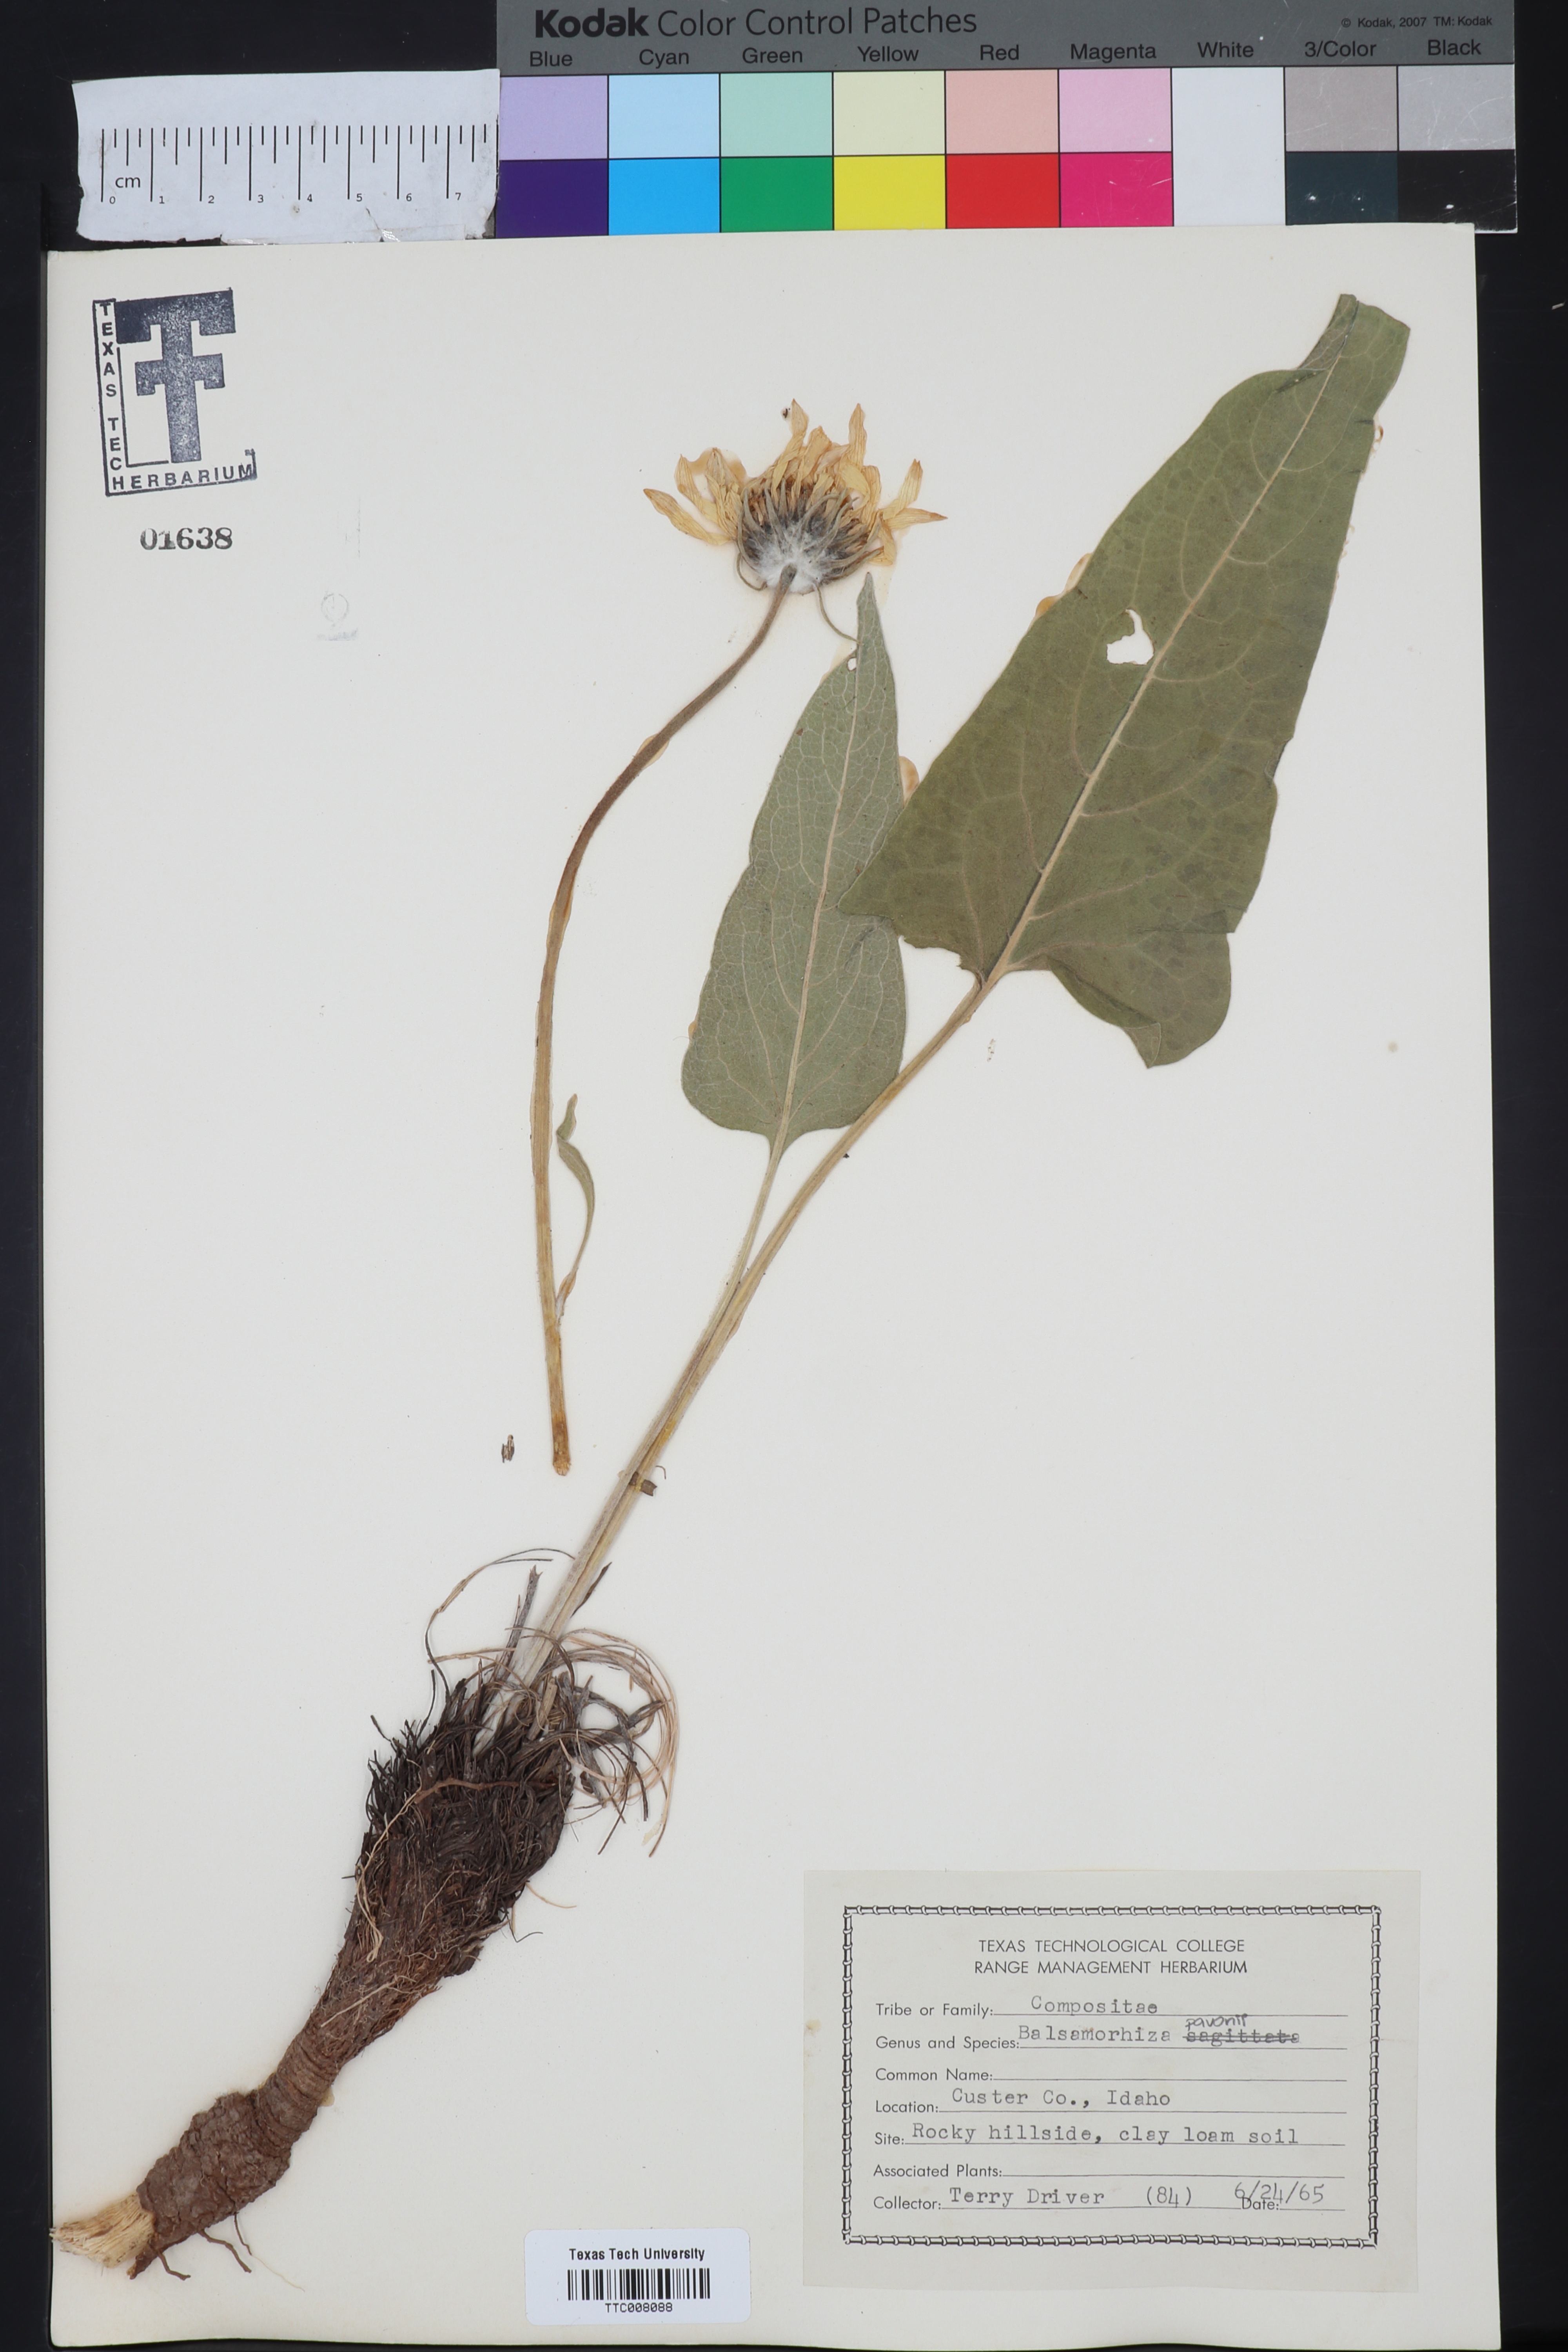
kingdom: Plantae
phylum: Tracheophyta
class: Magnoliopsida
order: Asterales
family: Asteraceae
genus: Wyethia
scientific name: Wyethia sagittata
